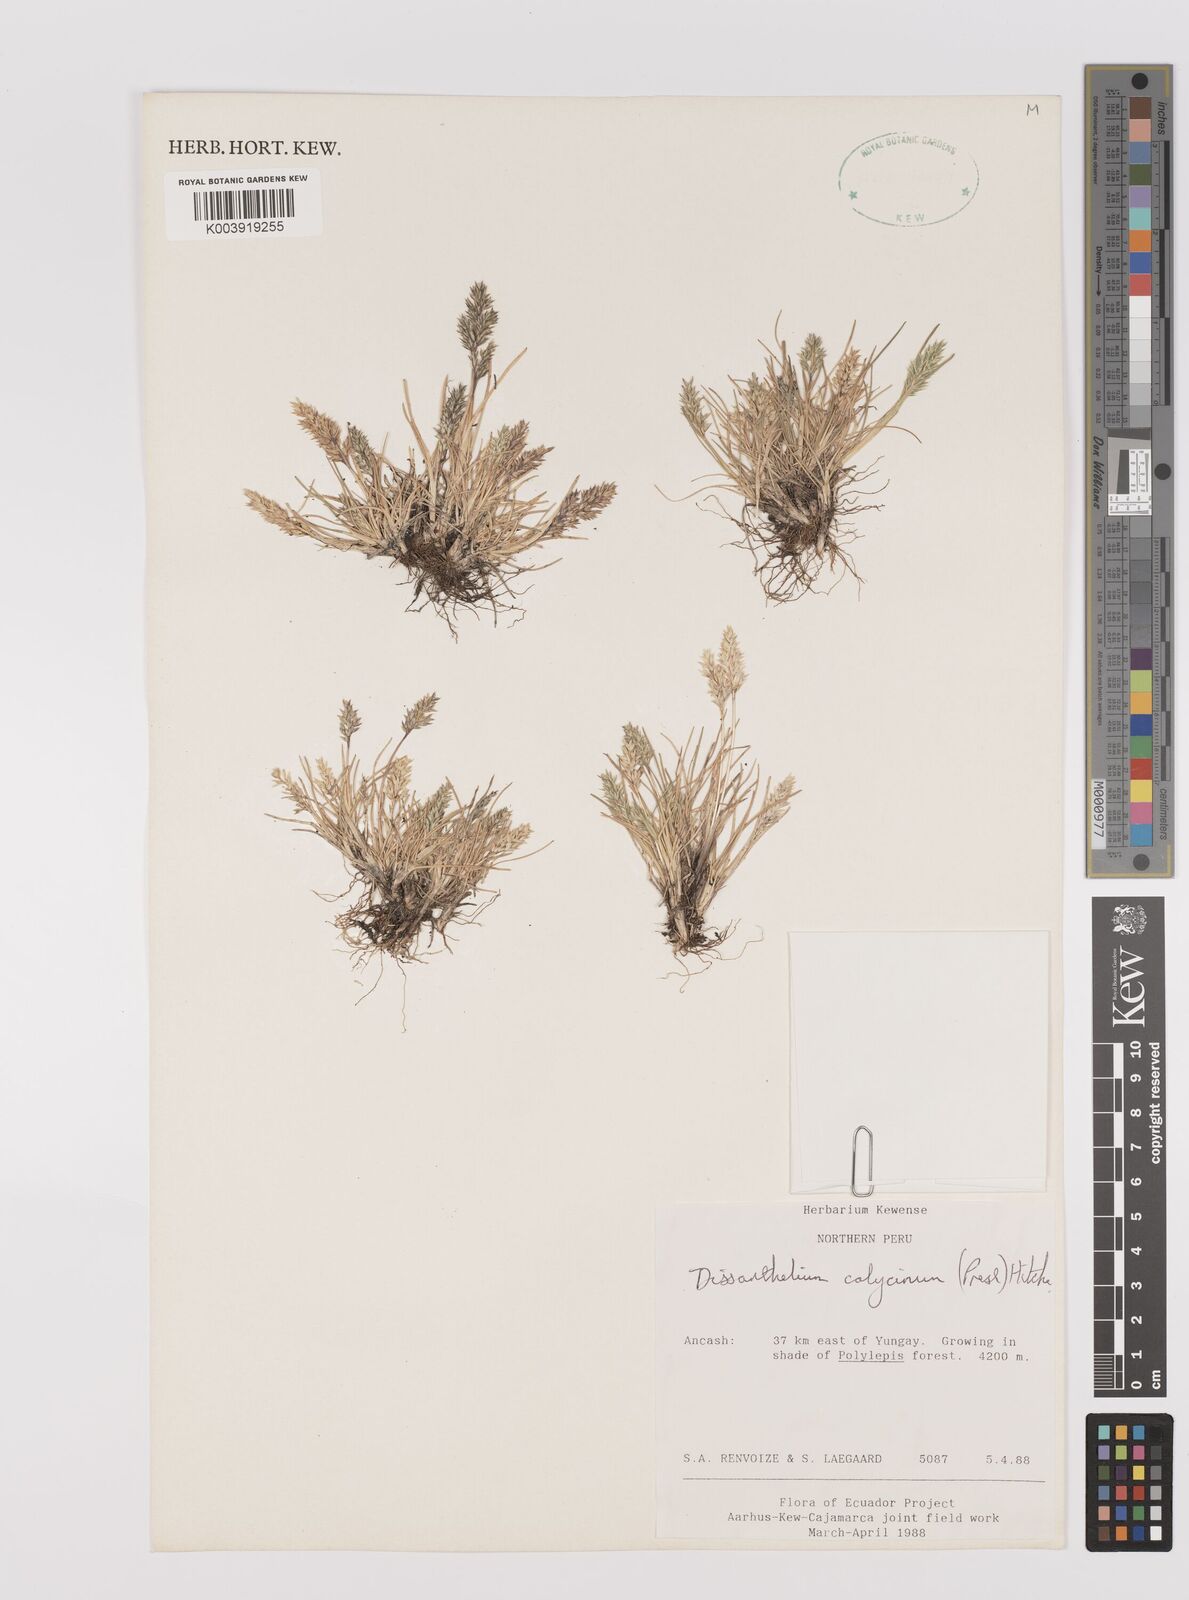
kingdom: Plantae
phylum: Tracheophyta
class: Liliopsida
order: Poales
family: Poaceae
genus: Poa
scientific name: Poa calycina
